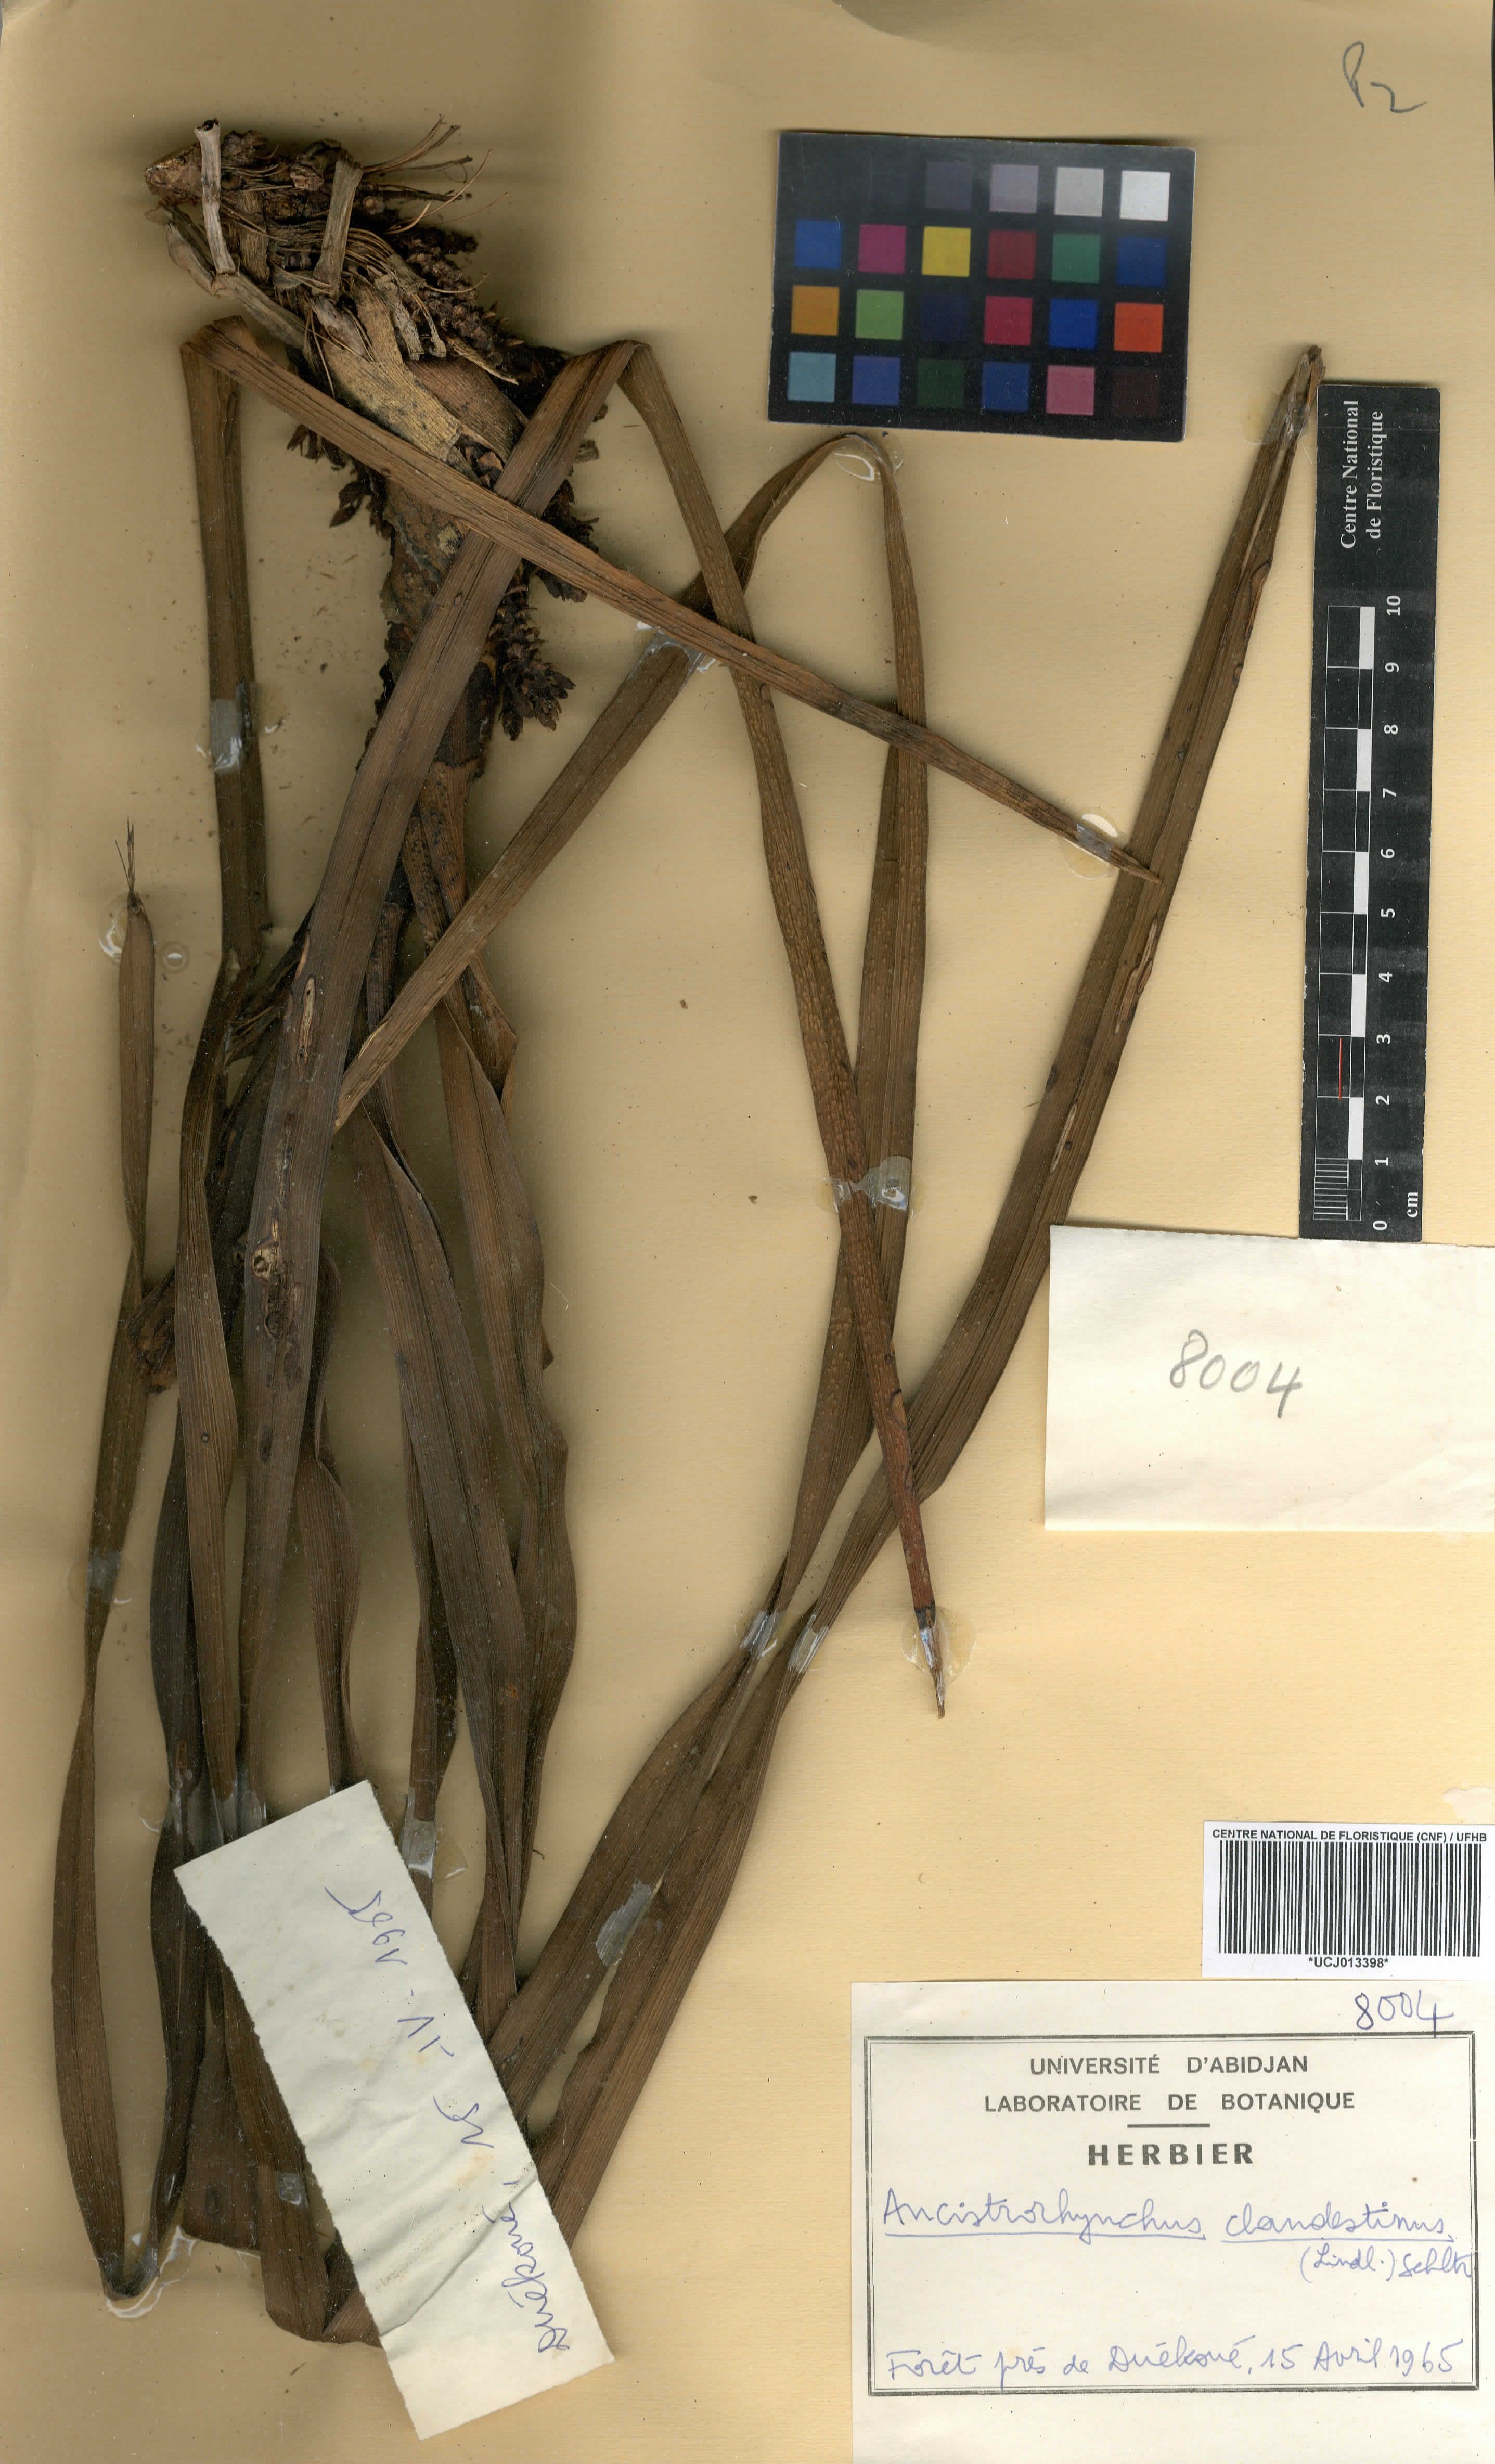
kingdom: Plantae
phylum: Tracheophyta
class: Liliopsida
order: Asparagales
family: Orchidaceae
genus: Ancistrorhynchus
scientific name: Ancistrorhynchus clandestinus
